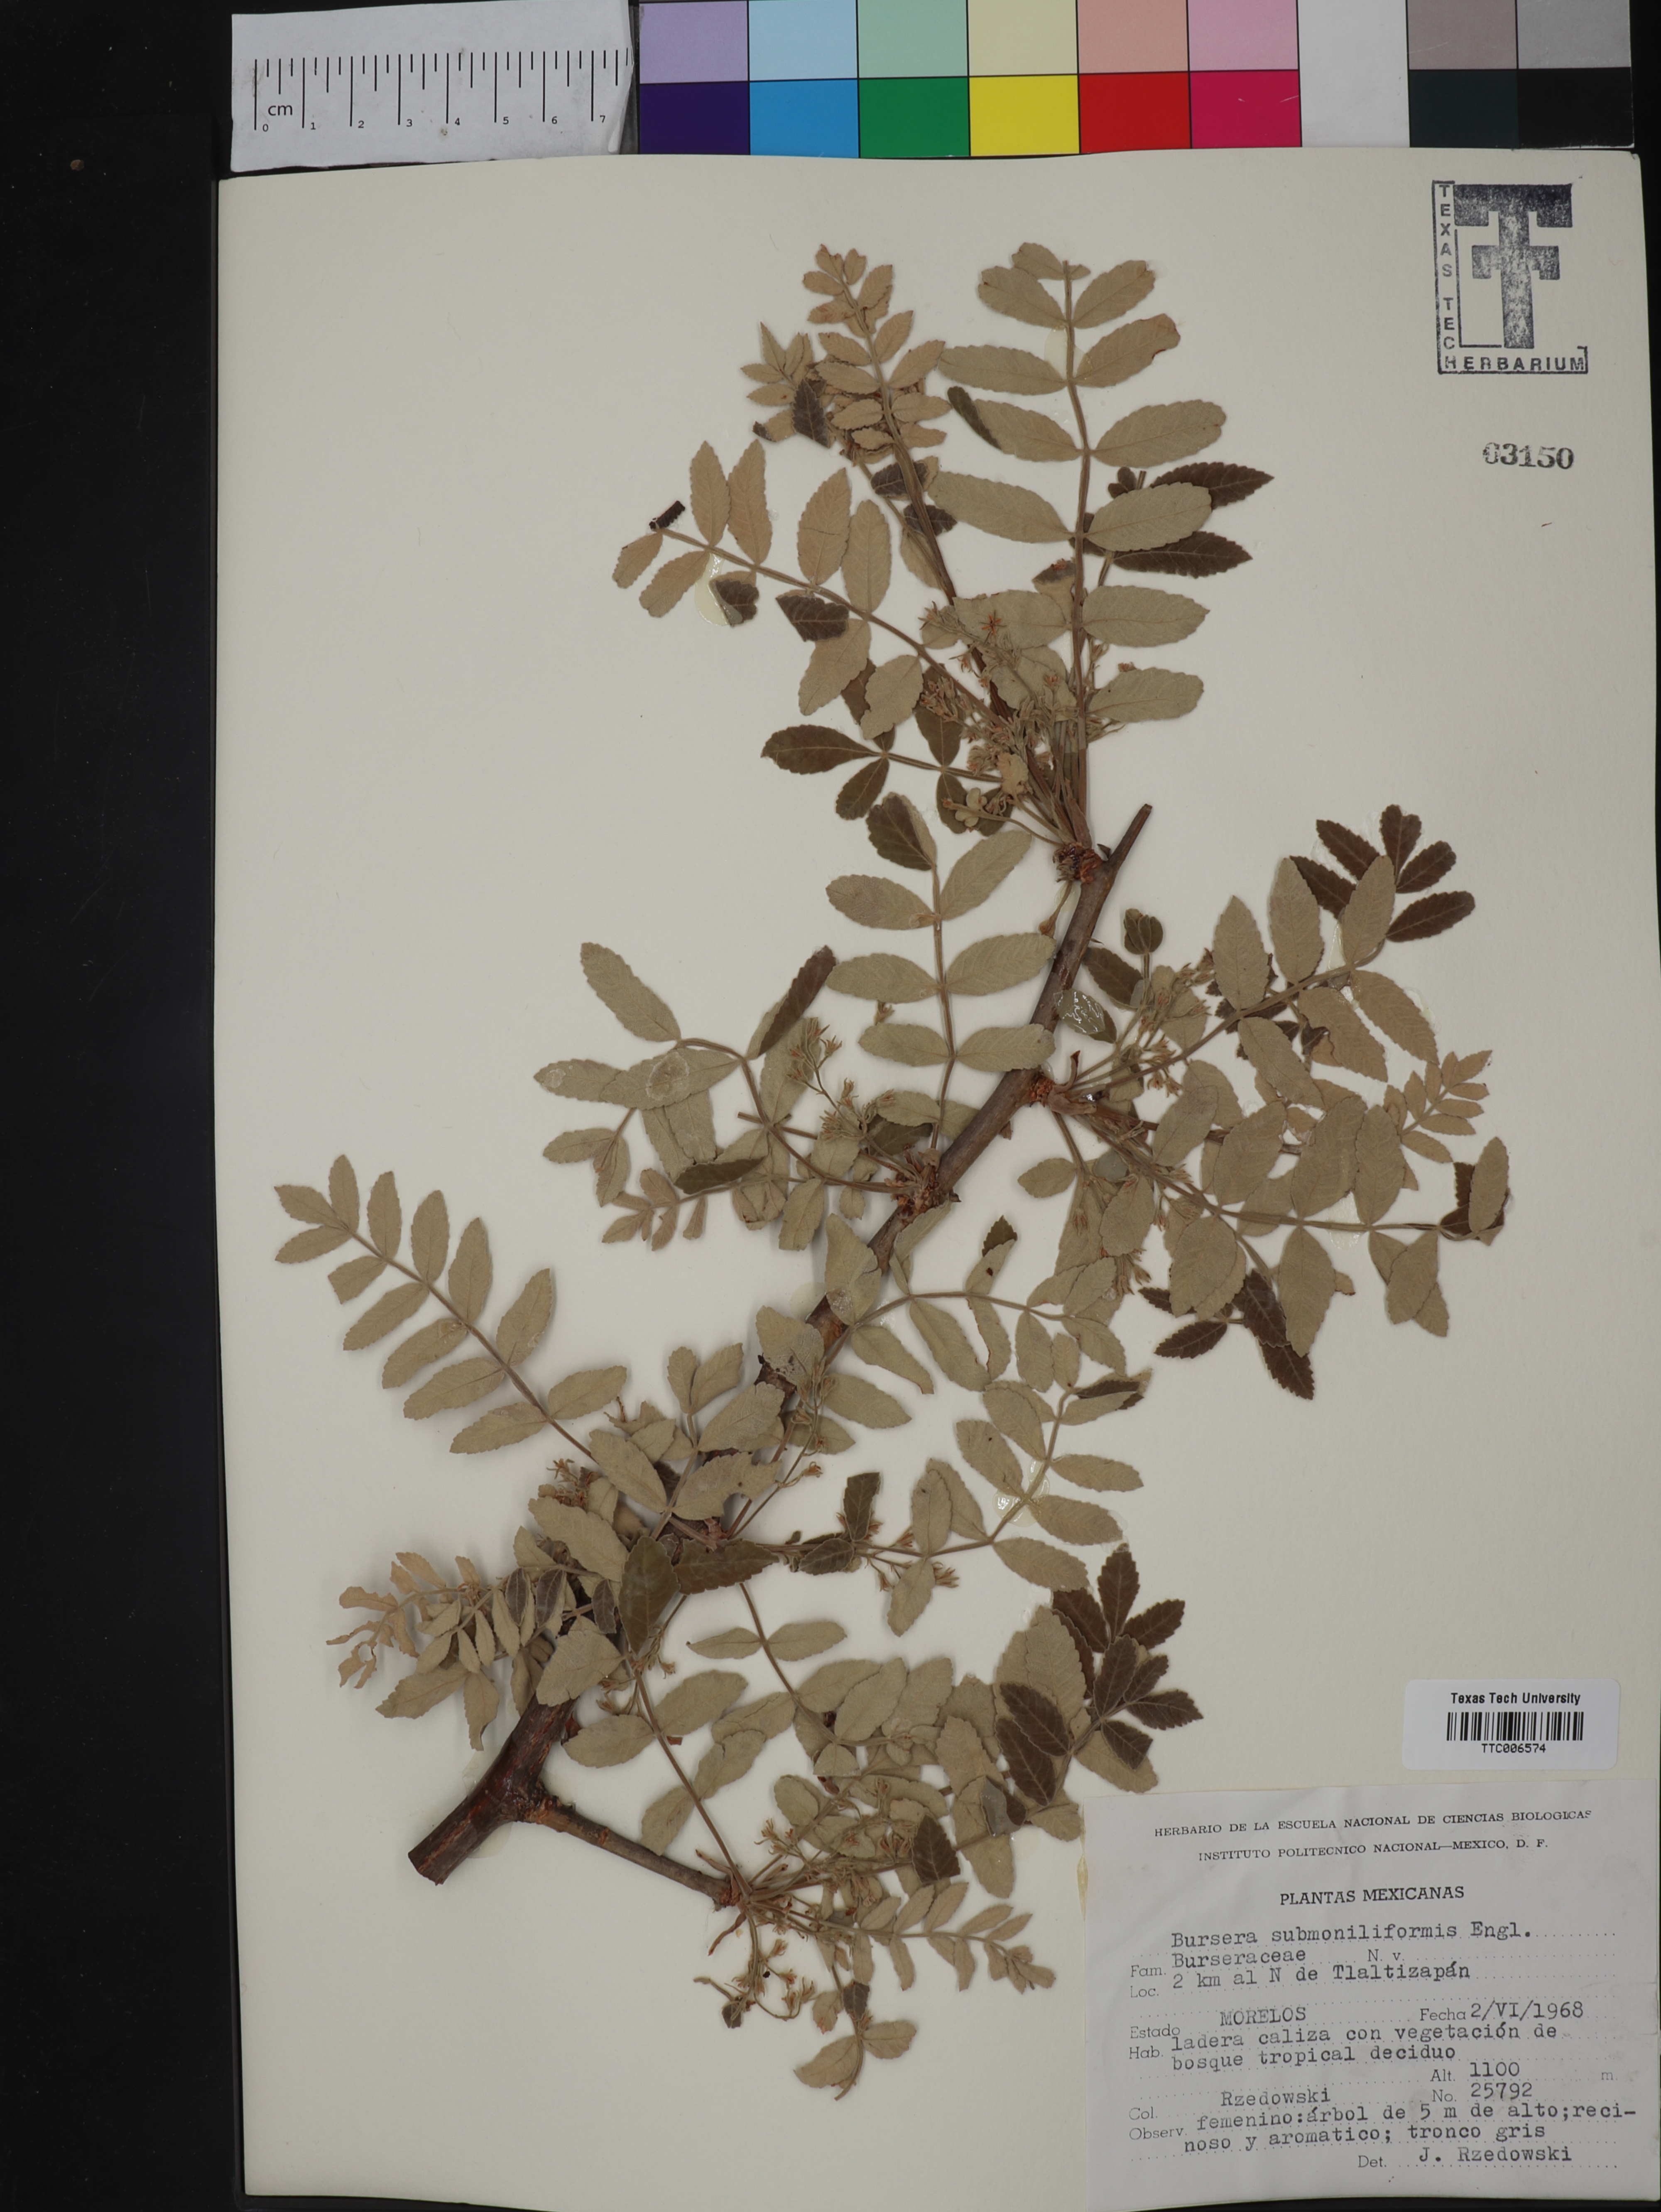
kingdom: Plantae
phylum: Tracheophyta
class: Magnoliopsida
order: Sapindales
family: Burseraceae
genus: Bursera
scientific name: Bursera submoniliformis
